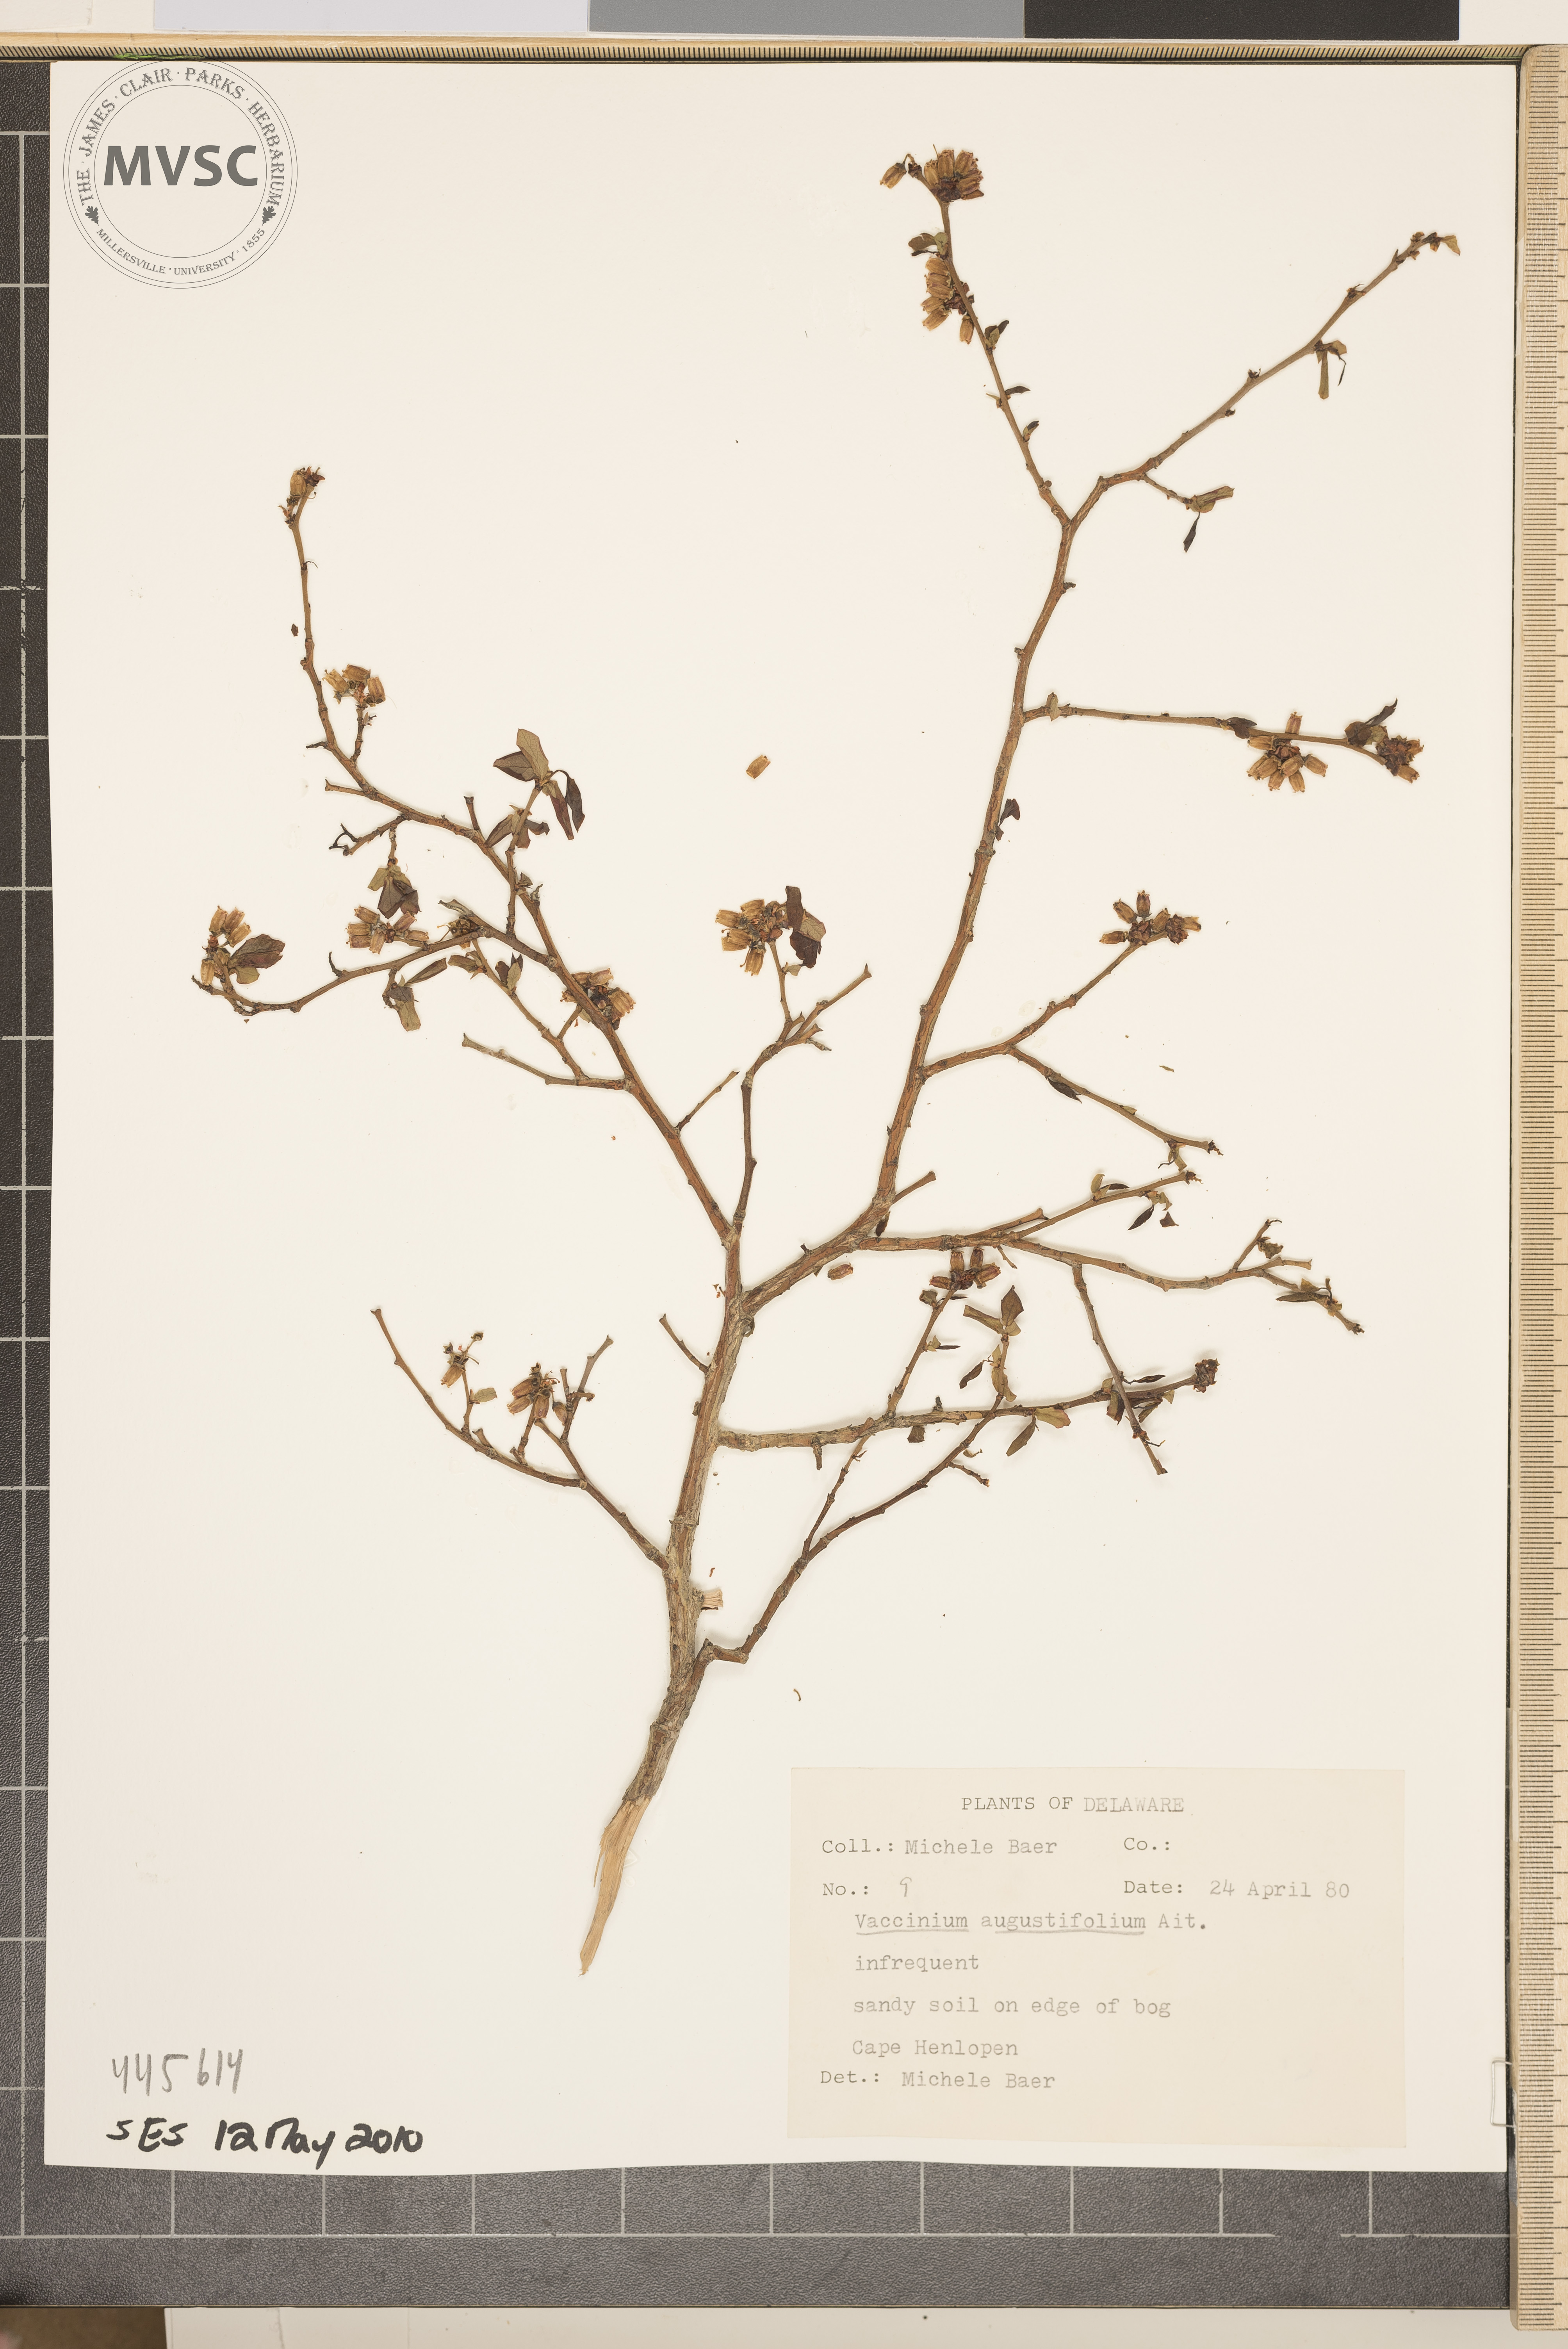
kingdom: Plantae
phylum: Tracheophyta
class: Magnoliopsida
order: Ericales
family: Ericaceae
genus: Vaccinium
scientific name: Vaccinium angustifolium
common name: Early lowbush blueberry
